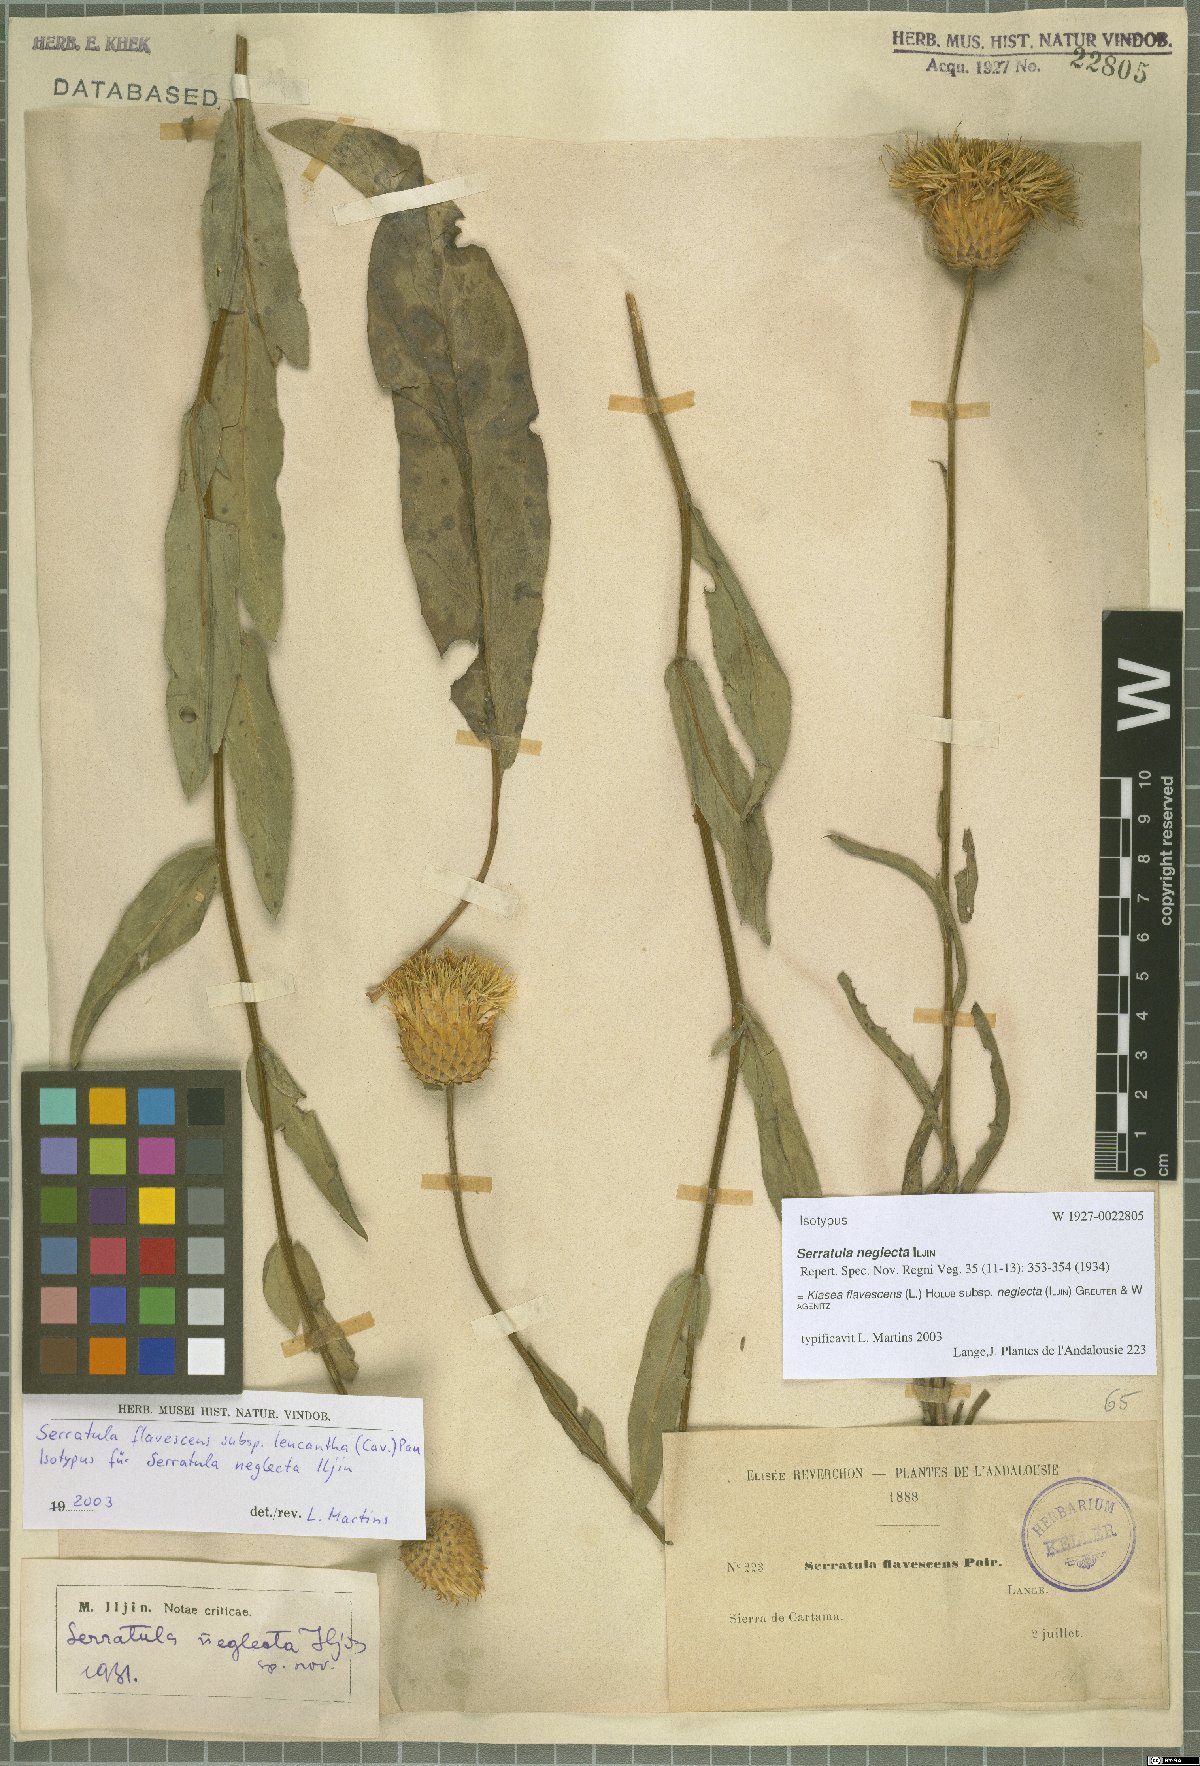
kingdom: Plantae
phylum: Tracheophyta
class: Magnoliopsida
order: Asterales
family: Asteraceae
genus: Klasea
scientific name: Klasea flavescens
